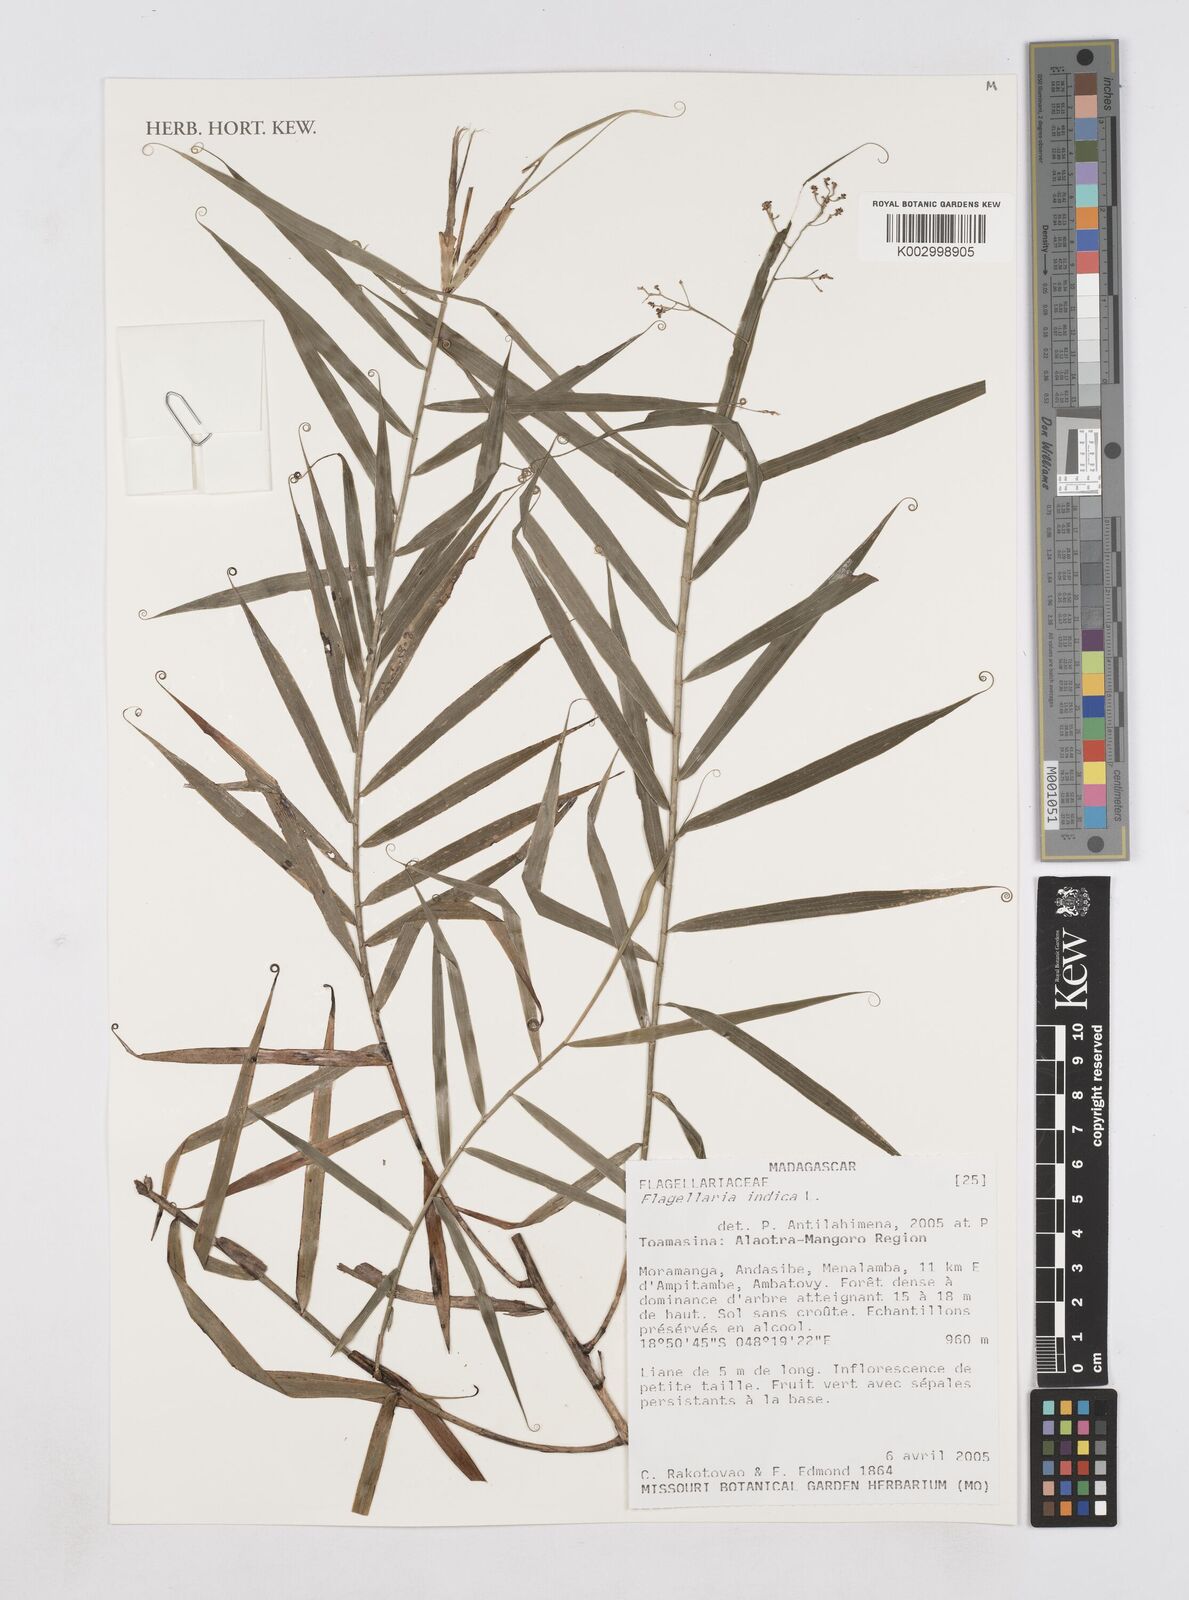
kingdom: Plantae
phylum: Tracheophyta
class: Liliopsida
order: Poales
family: Flagellariaceae
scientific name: Flagellariaceae
